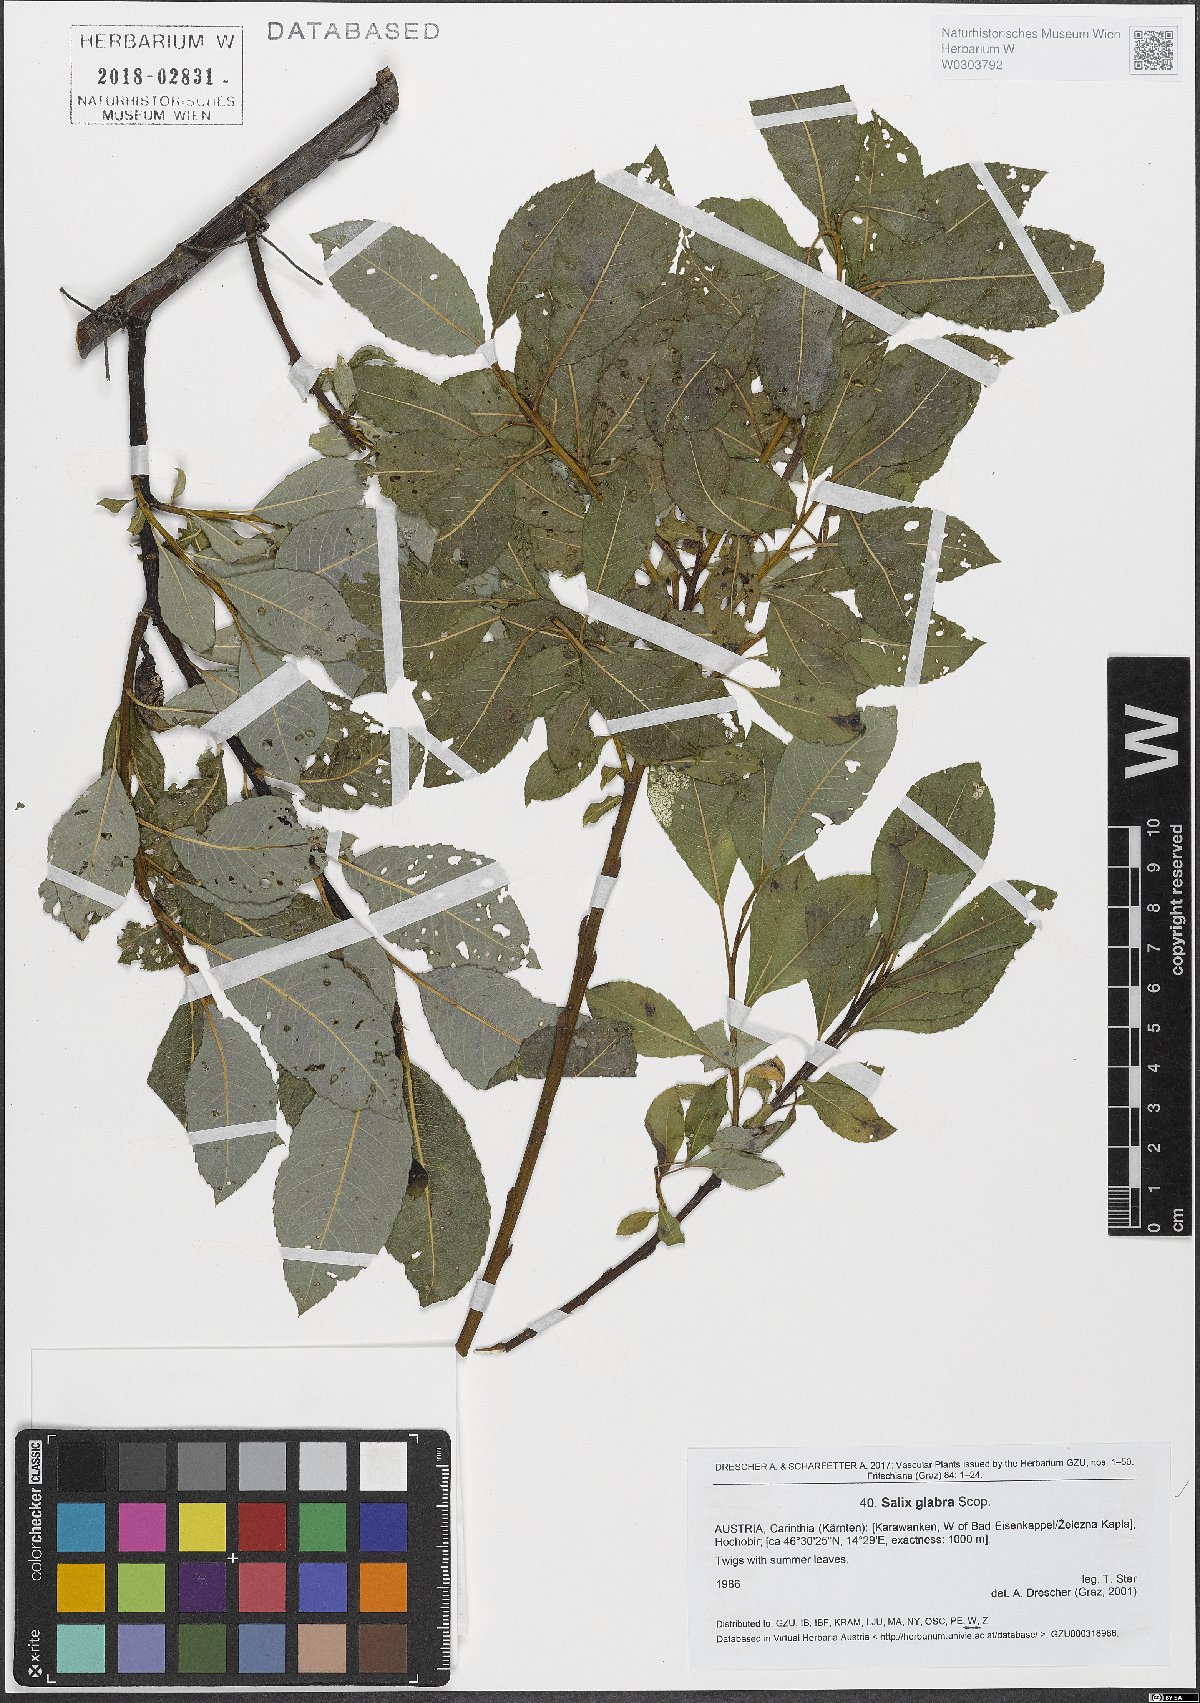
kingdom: Plantae
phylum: Tracheophyta
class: Magnoliopsida
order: Malpighiales
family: Salicaceae
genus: Salix
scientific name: Salix glabra
